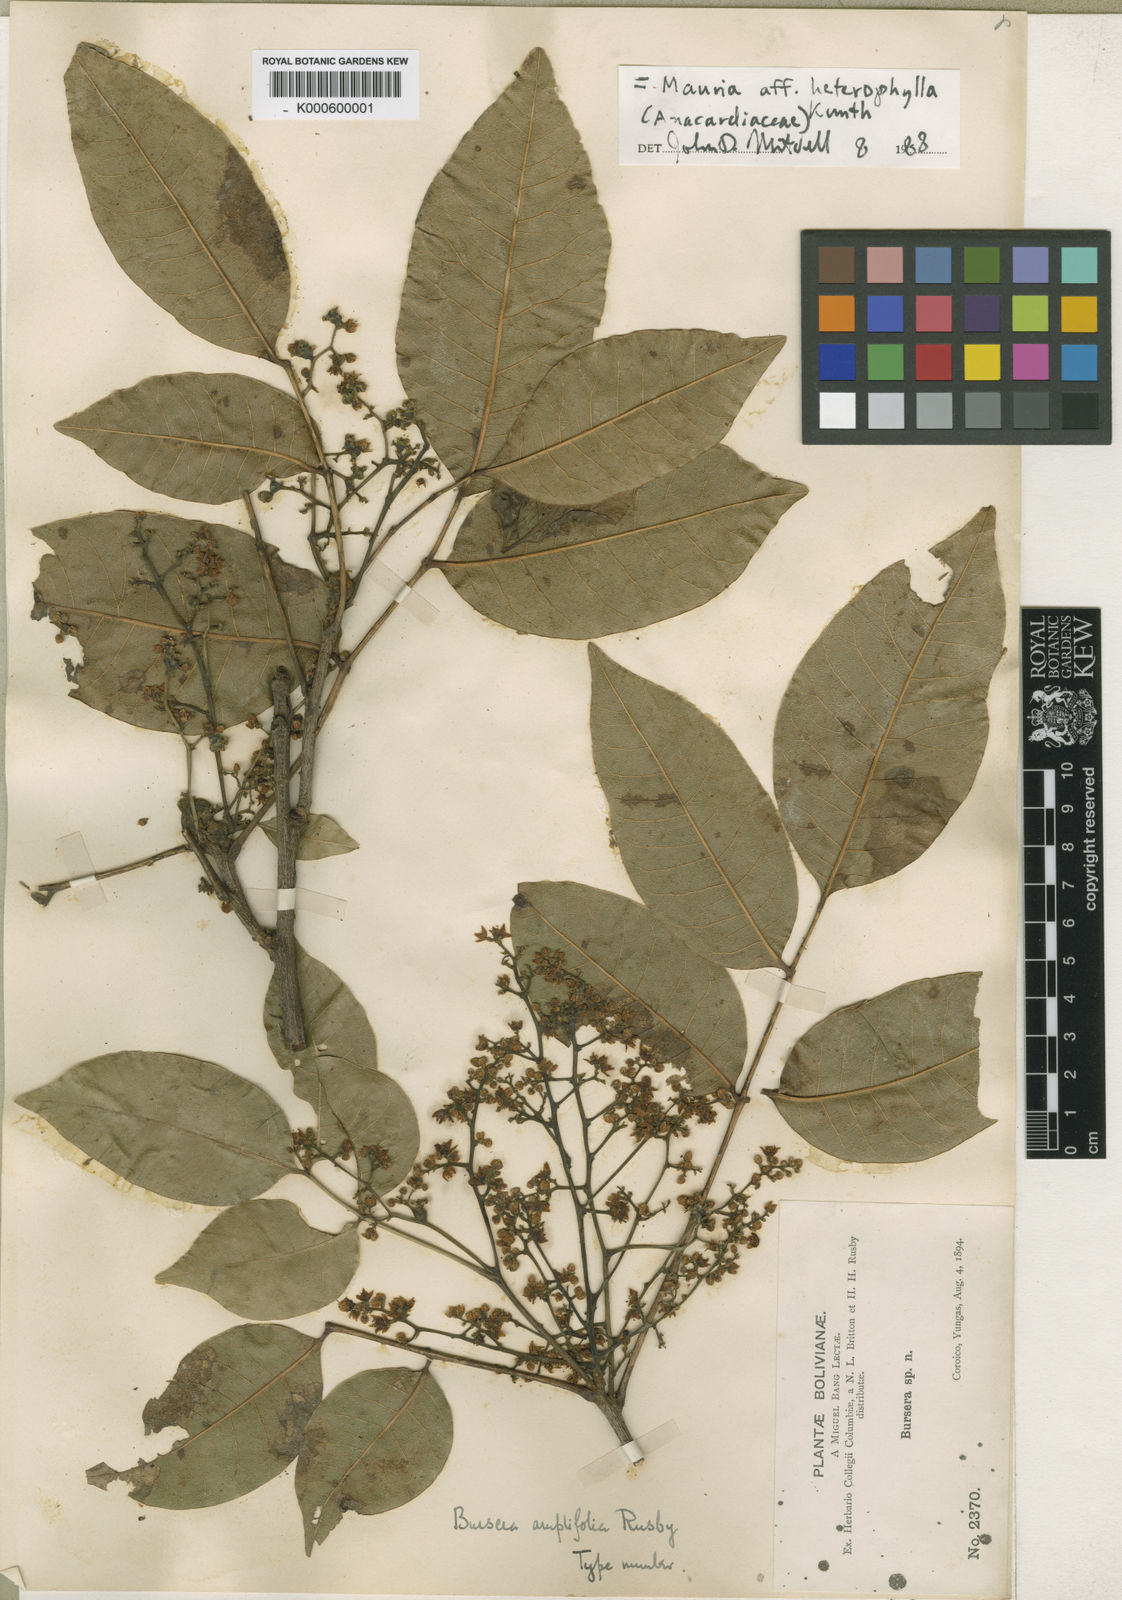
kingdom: Plantae
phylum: Tracheophyta
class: Magnoliopsida
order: Sapindales
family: Anacardiaceae
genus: Mauria
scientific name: Mauria heterophylla
